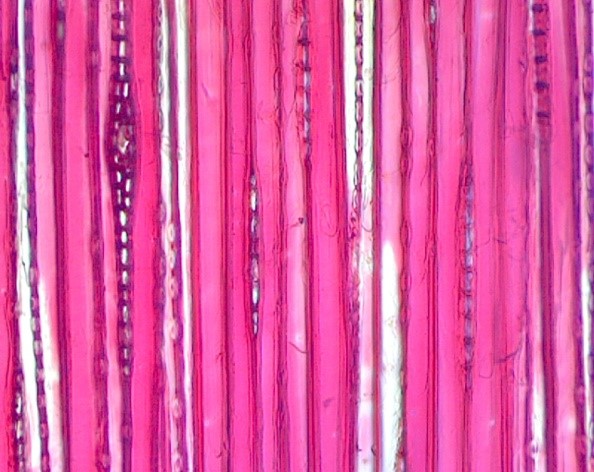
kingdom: Plantae
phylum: Tracheophyta
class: Pinopsida
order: Pinales
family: Pinaceae
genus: Picea
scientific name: Picea abies
